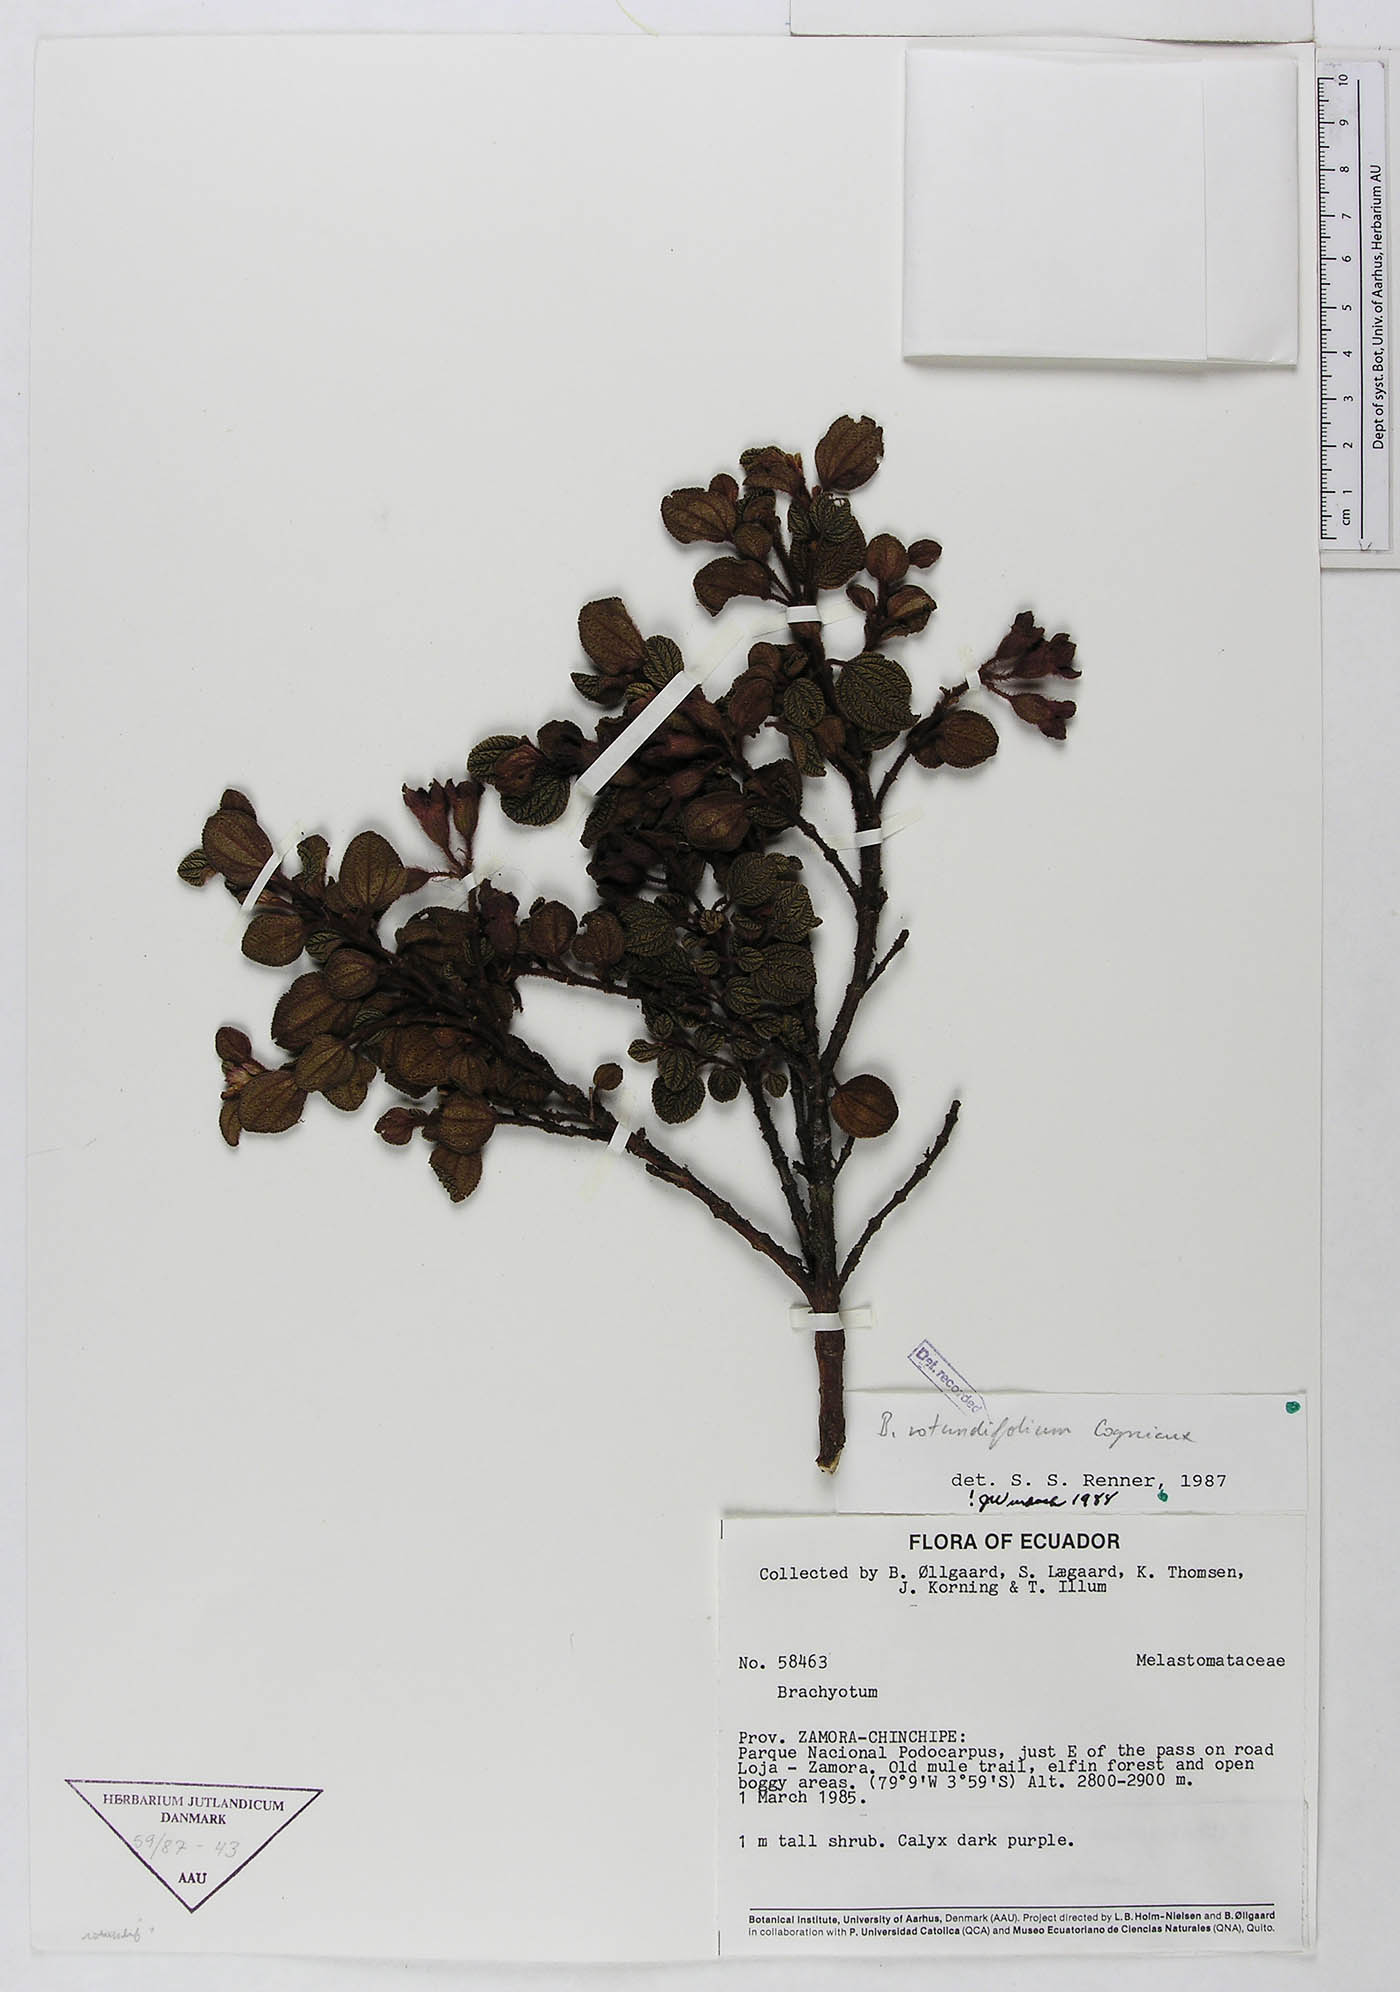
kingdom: Plantae
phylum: Tracheophyta
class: Magnoliopsida
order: Myrtales
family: Melastomataceae
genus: Brachyotum
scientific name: Brachyotum rotundifolium
